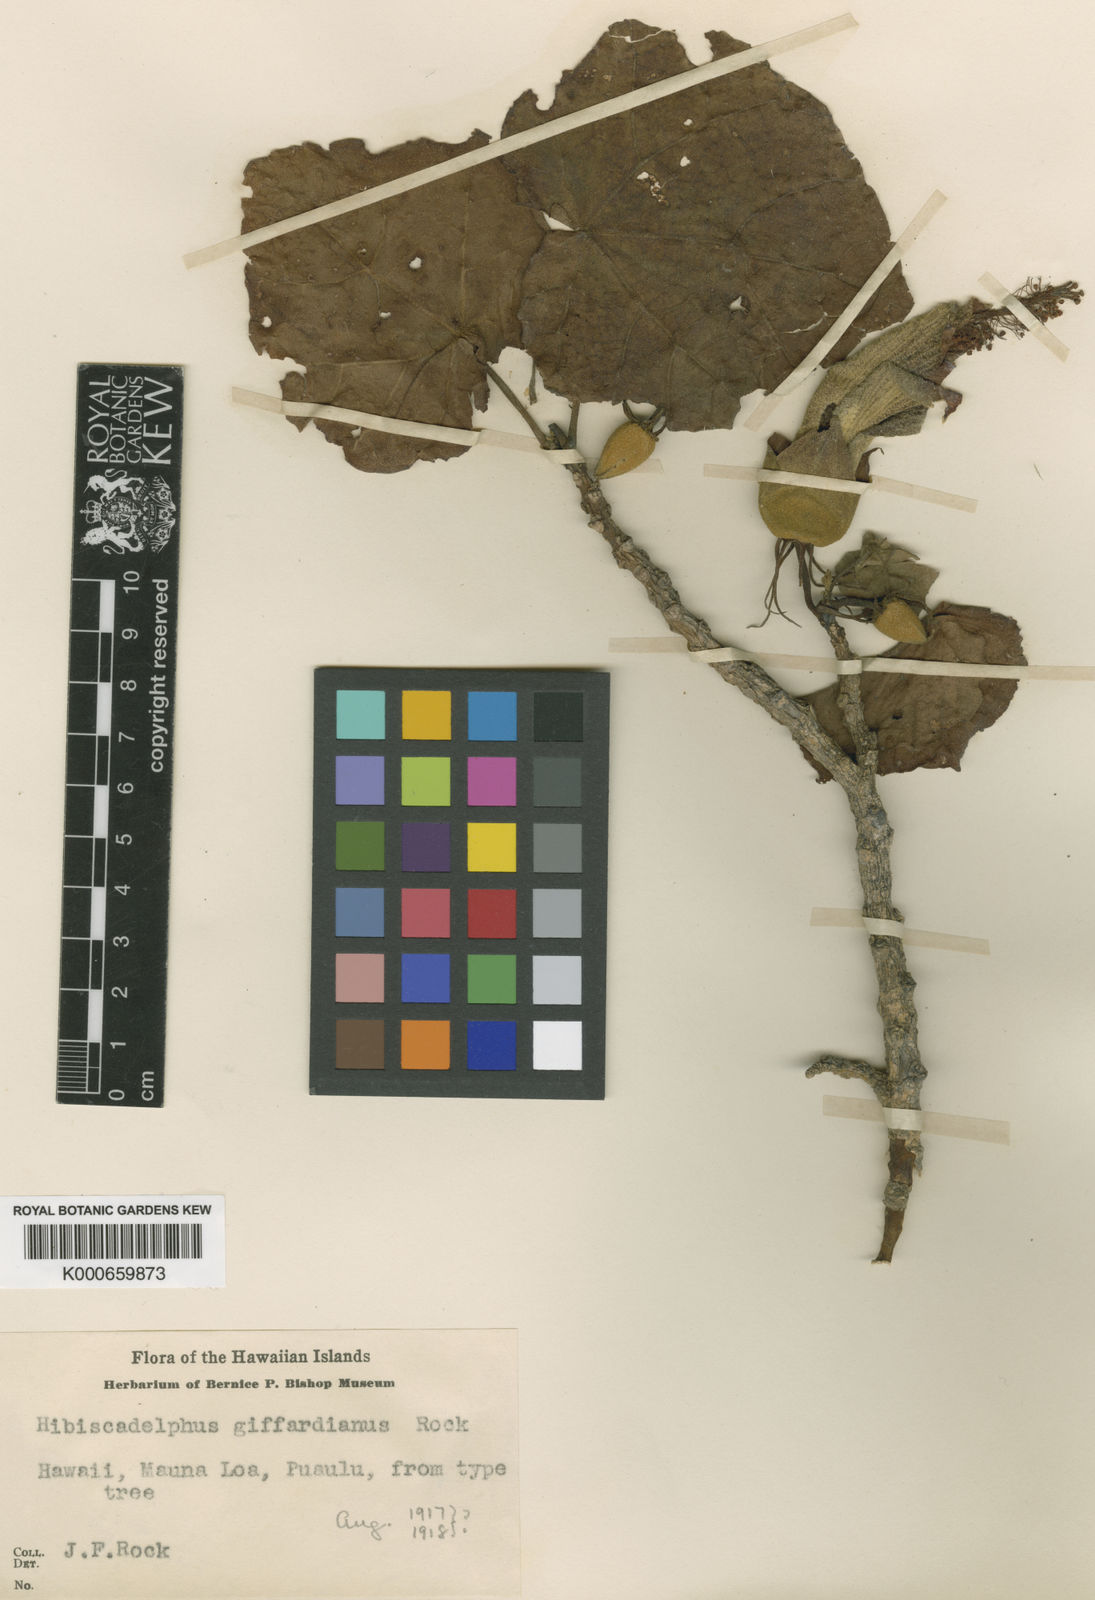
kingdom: Plantae
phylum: Tracheophyta
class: Magnoliopsida
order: Malvales
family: Malvaceae
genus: Hibiscadelphus
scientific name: Hibiscadelphus giffardianus
